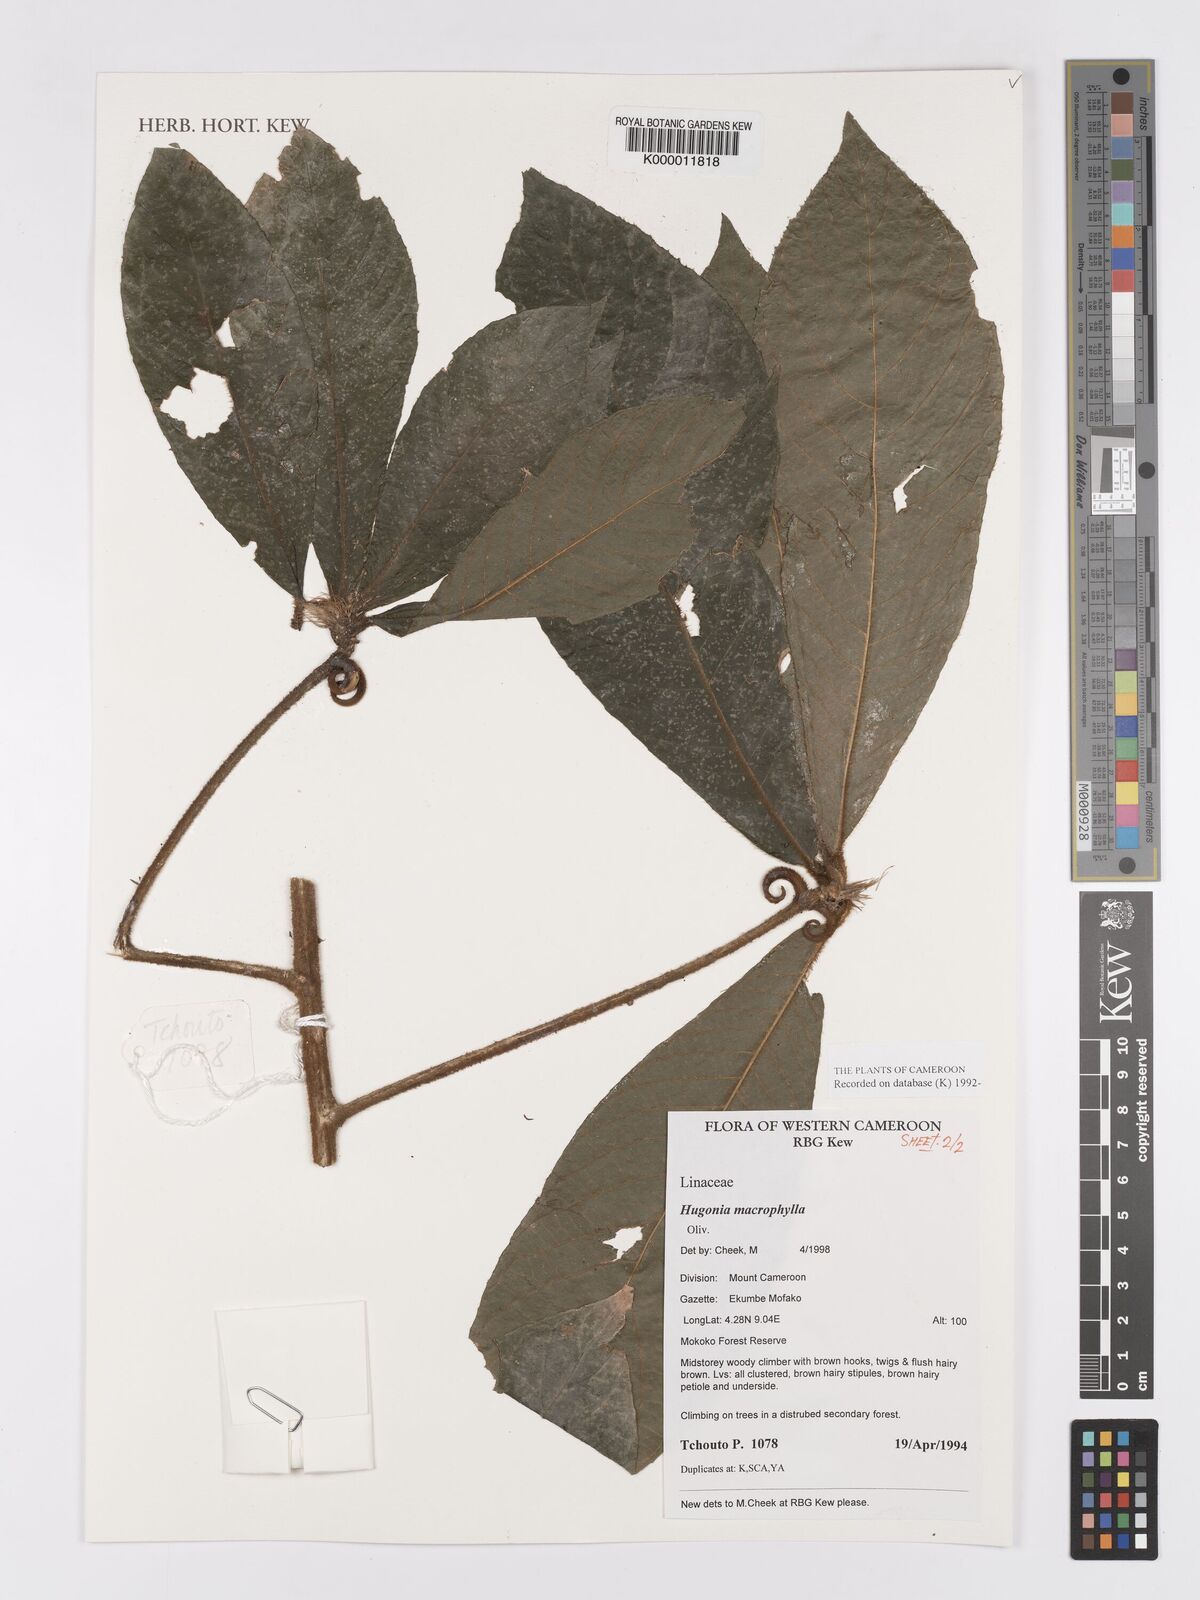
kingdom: Plantae
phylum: Tracheophyta
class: Magnoliopsida
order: Malpighiales
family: Linaceae
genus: Hugonia
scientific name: Hugonia macrophylla
